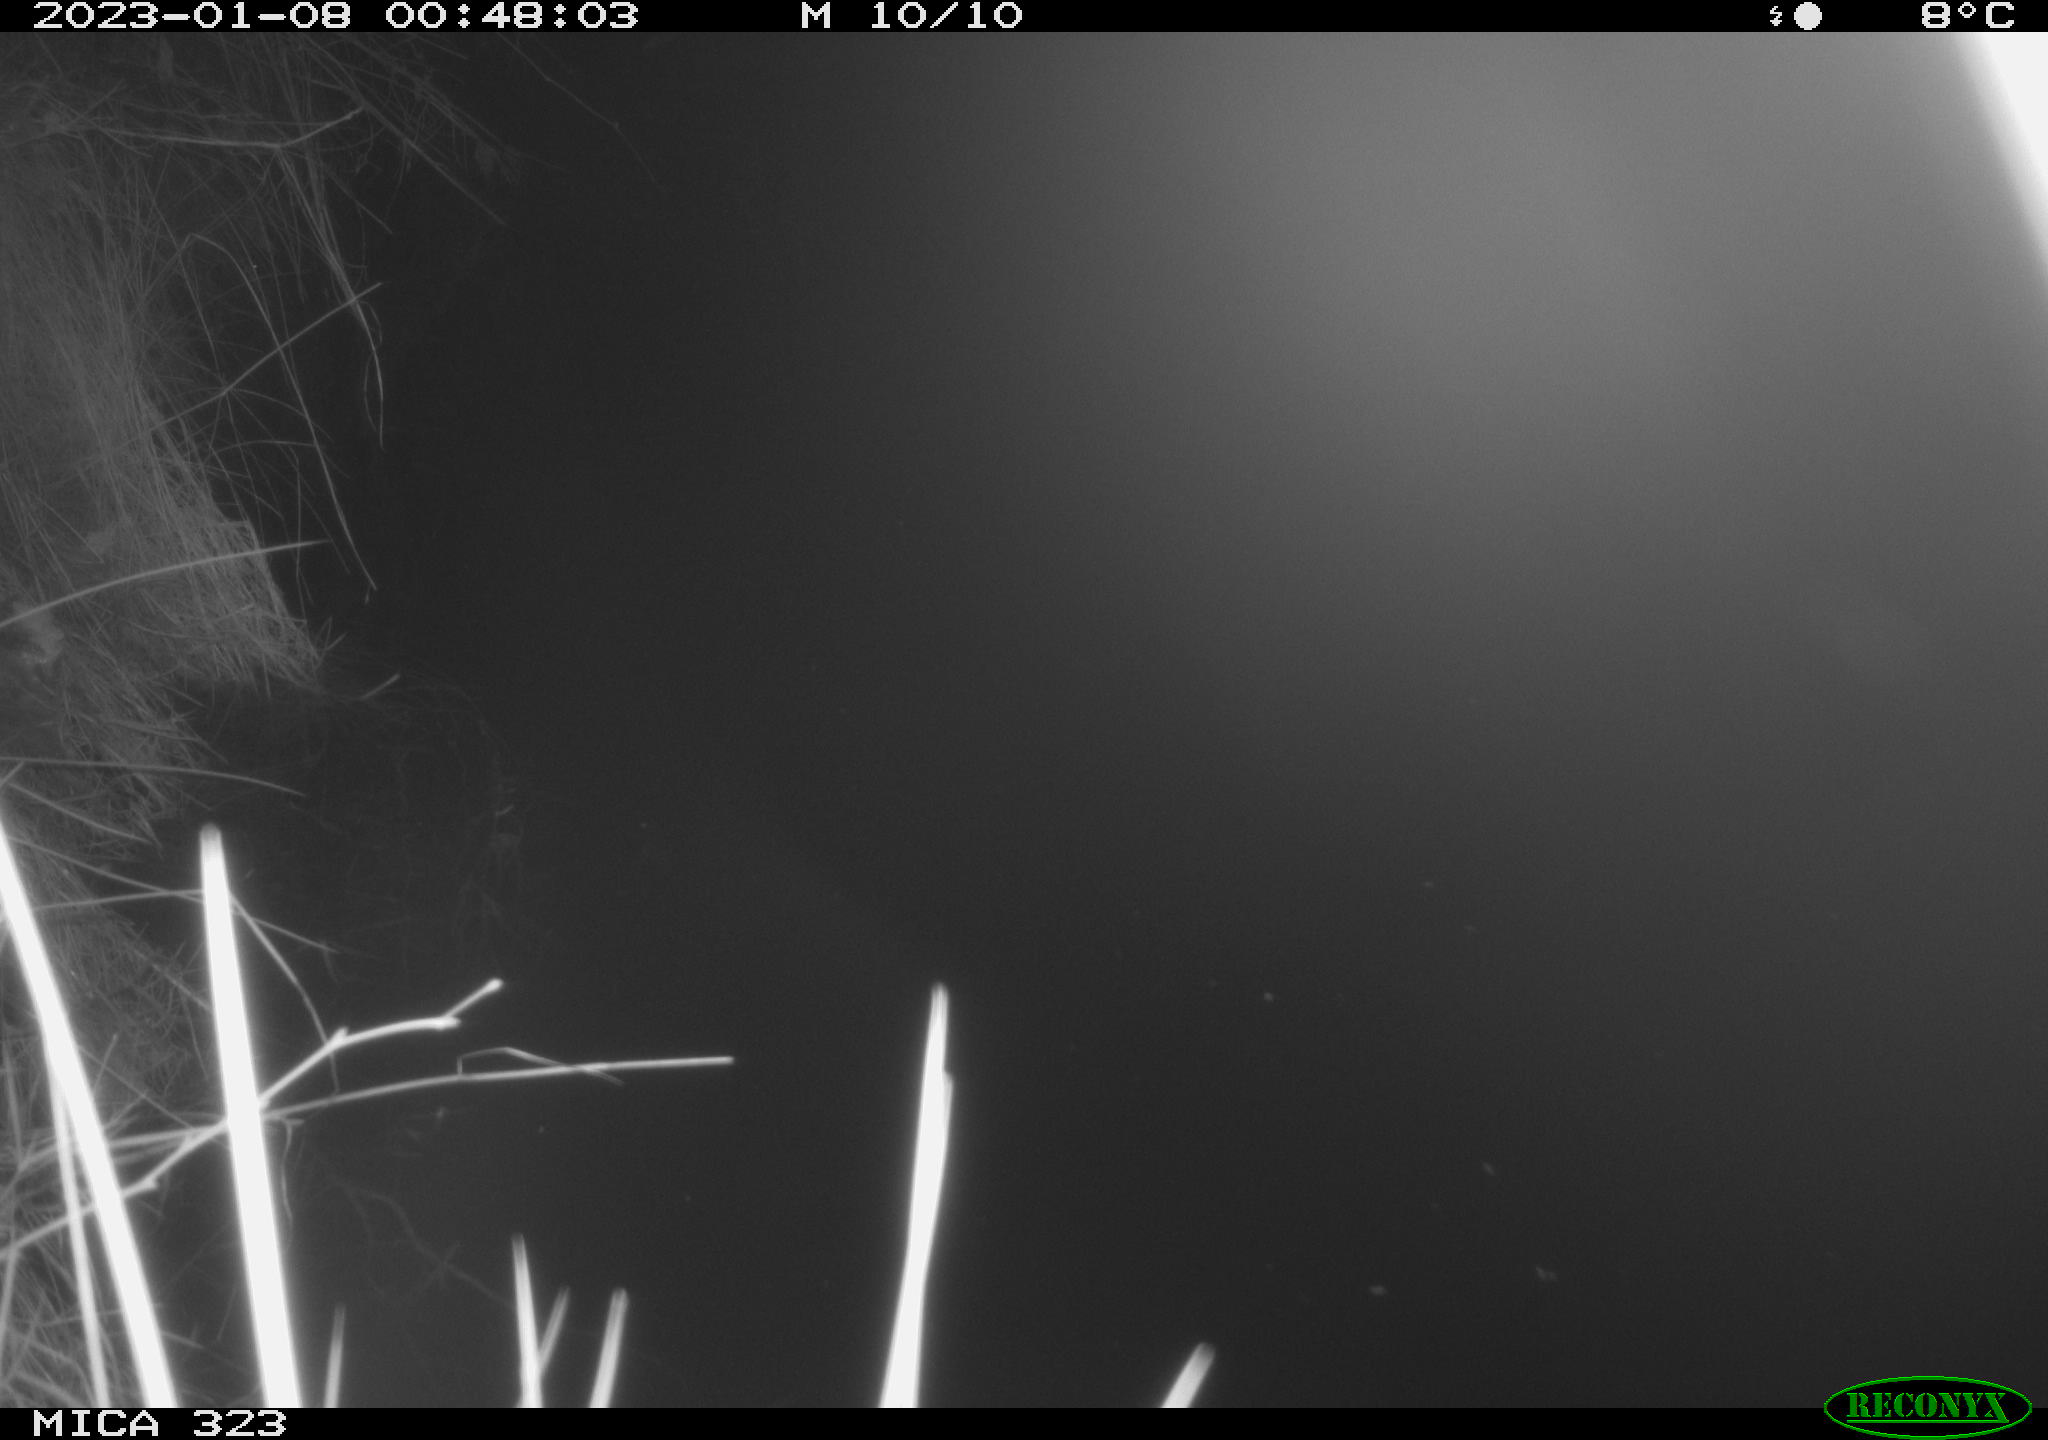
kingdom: Animalia
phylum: Chordata
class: Mammalia
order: Rodentia
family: Cricetidae
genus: Ondatra
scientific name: Ondatra zibethicus
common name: Muskrat
